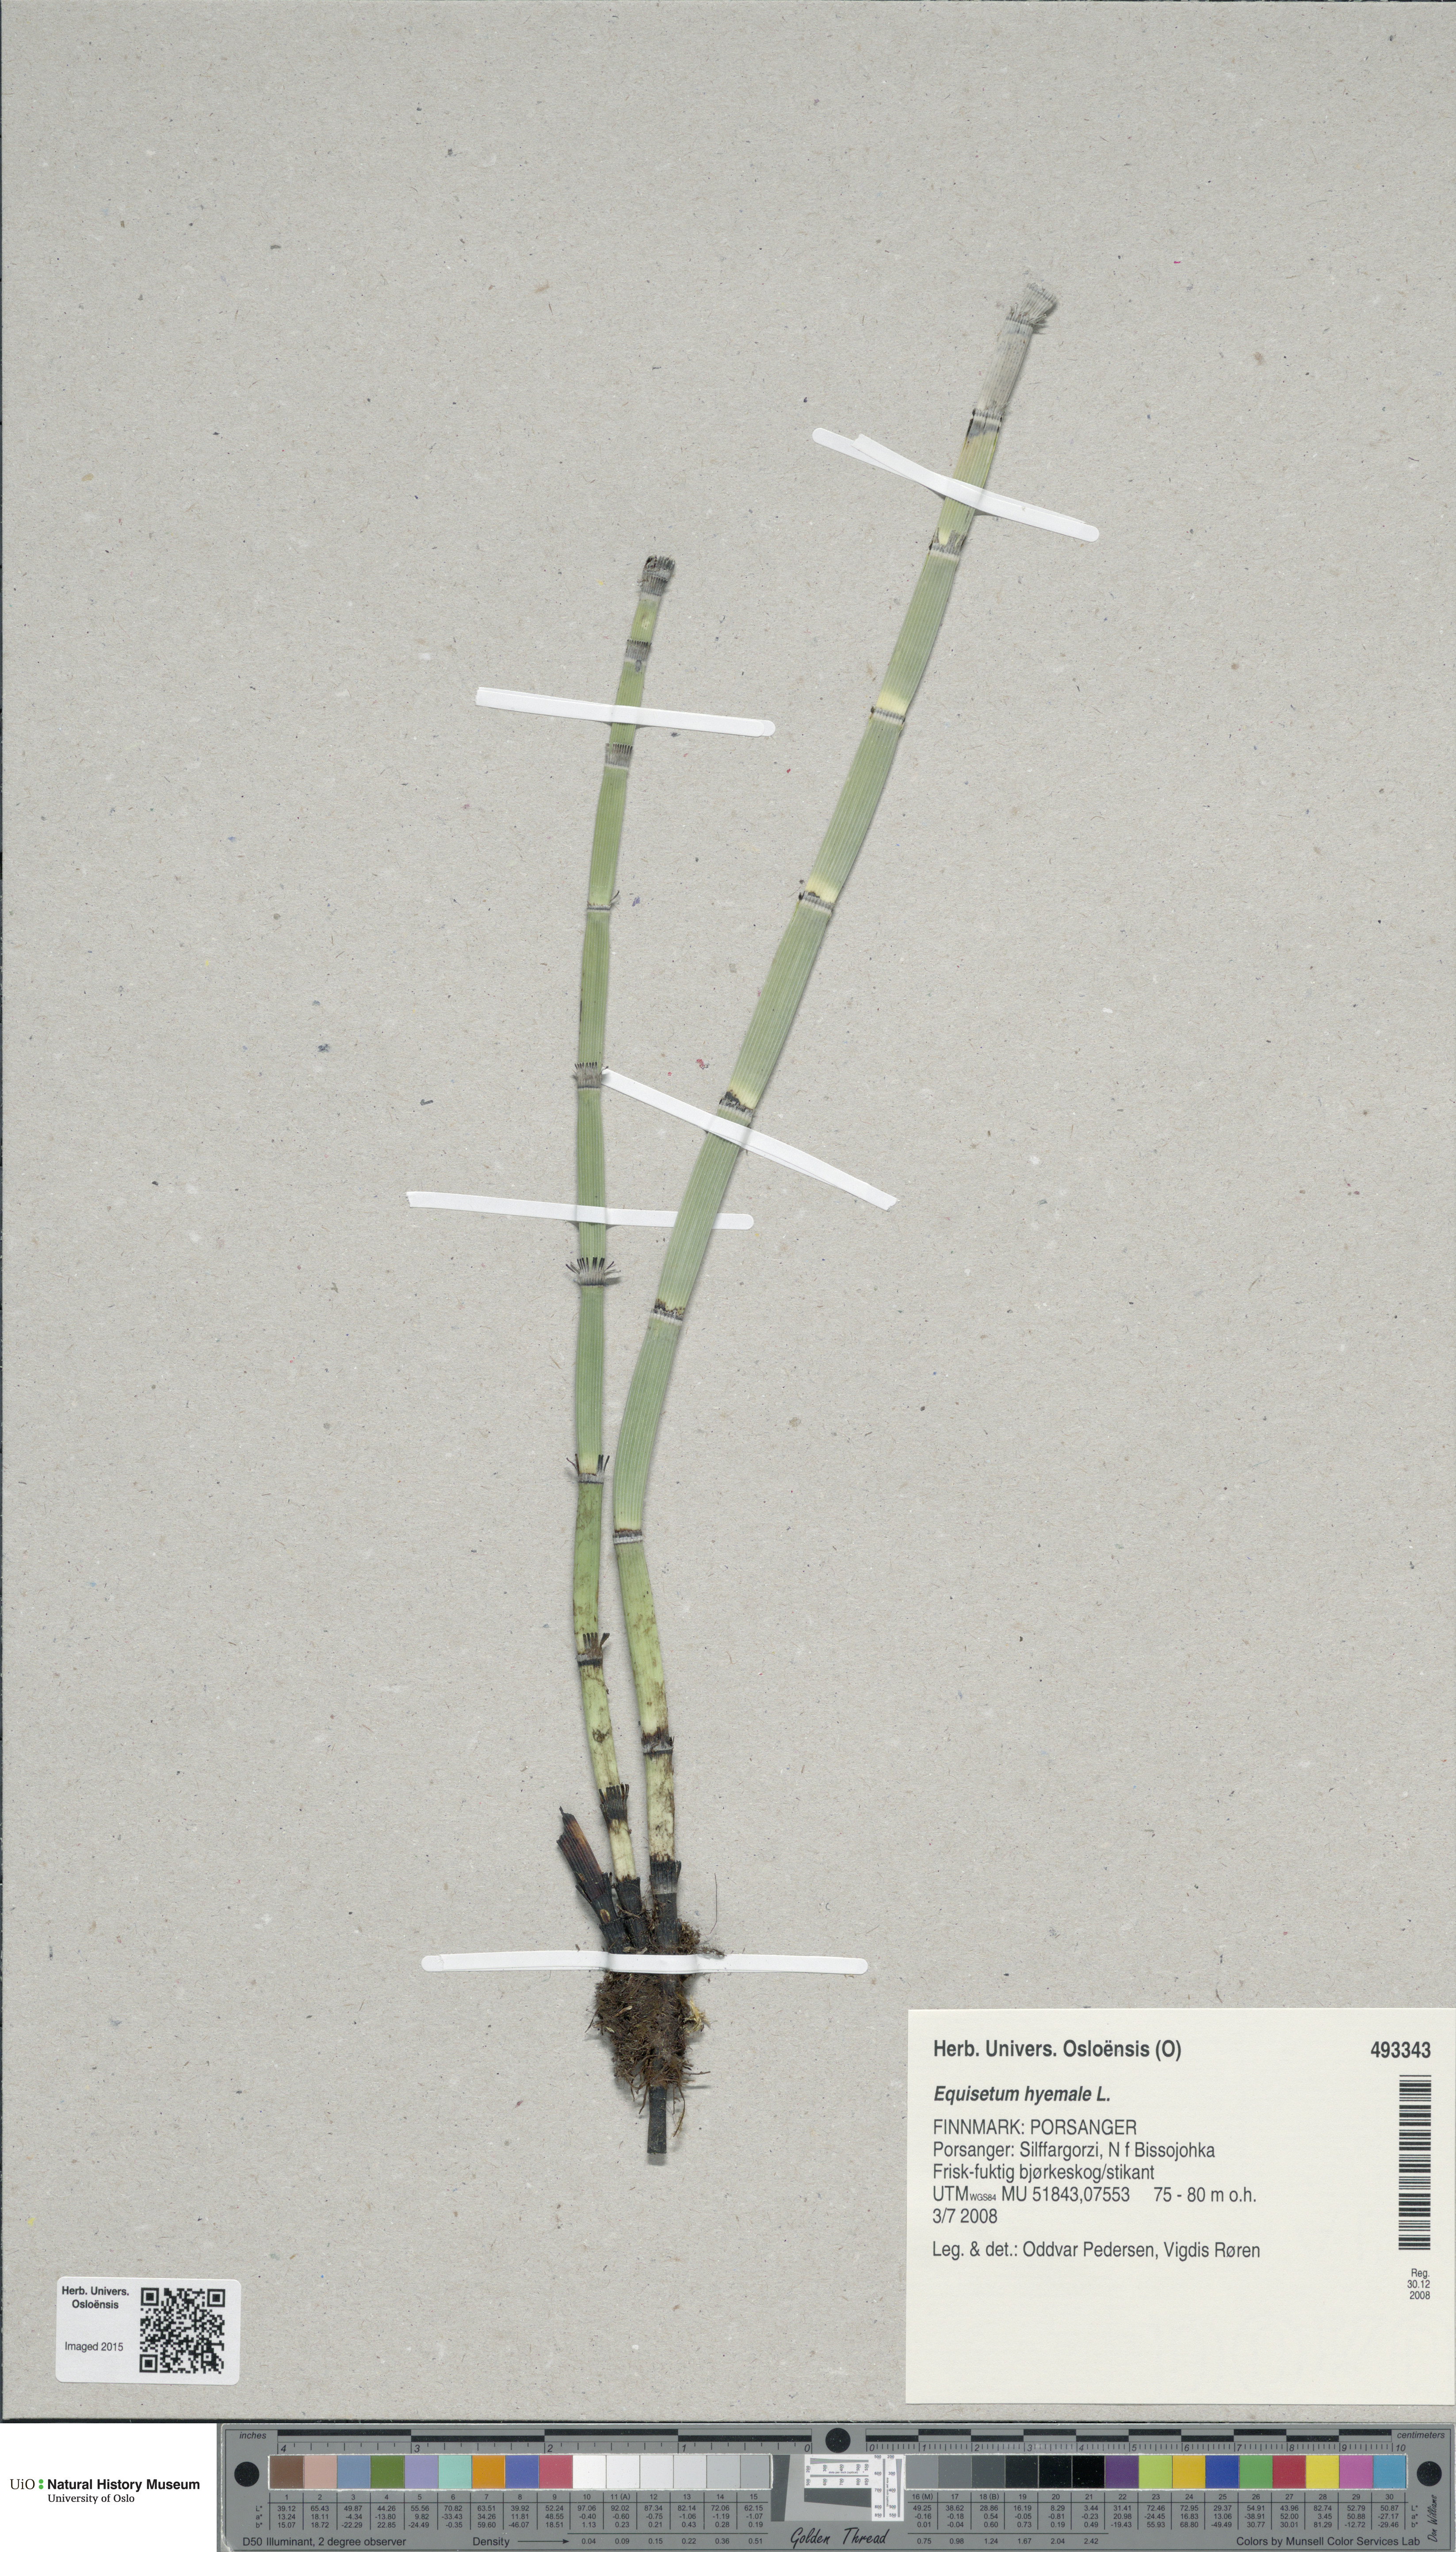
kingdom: Plantae
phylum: Tracheophyta
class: Polypodiopsida
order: Equisetales
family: Equisetaceae
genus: Equisetum
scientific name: Equisetum hyemale
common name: Rough horsetail
